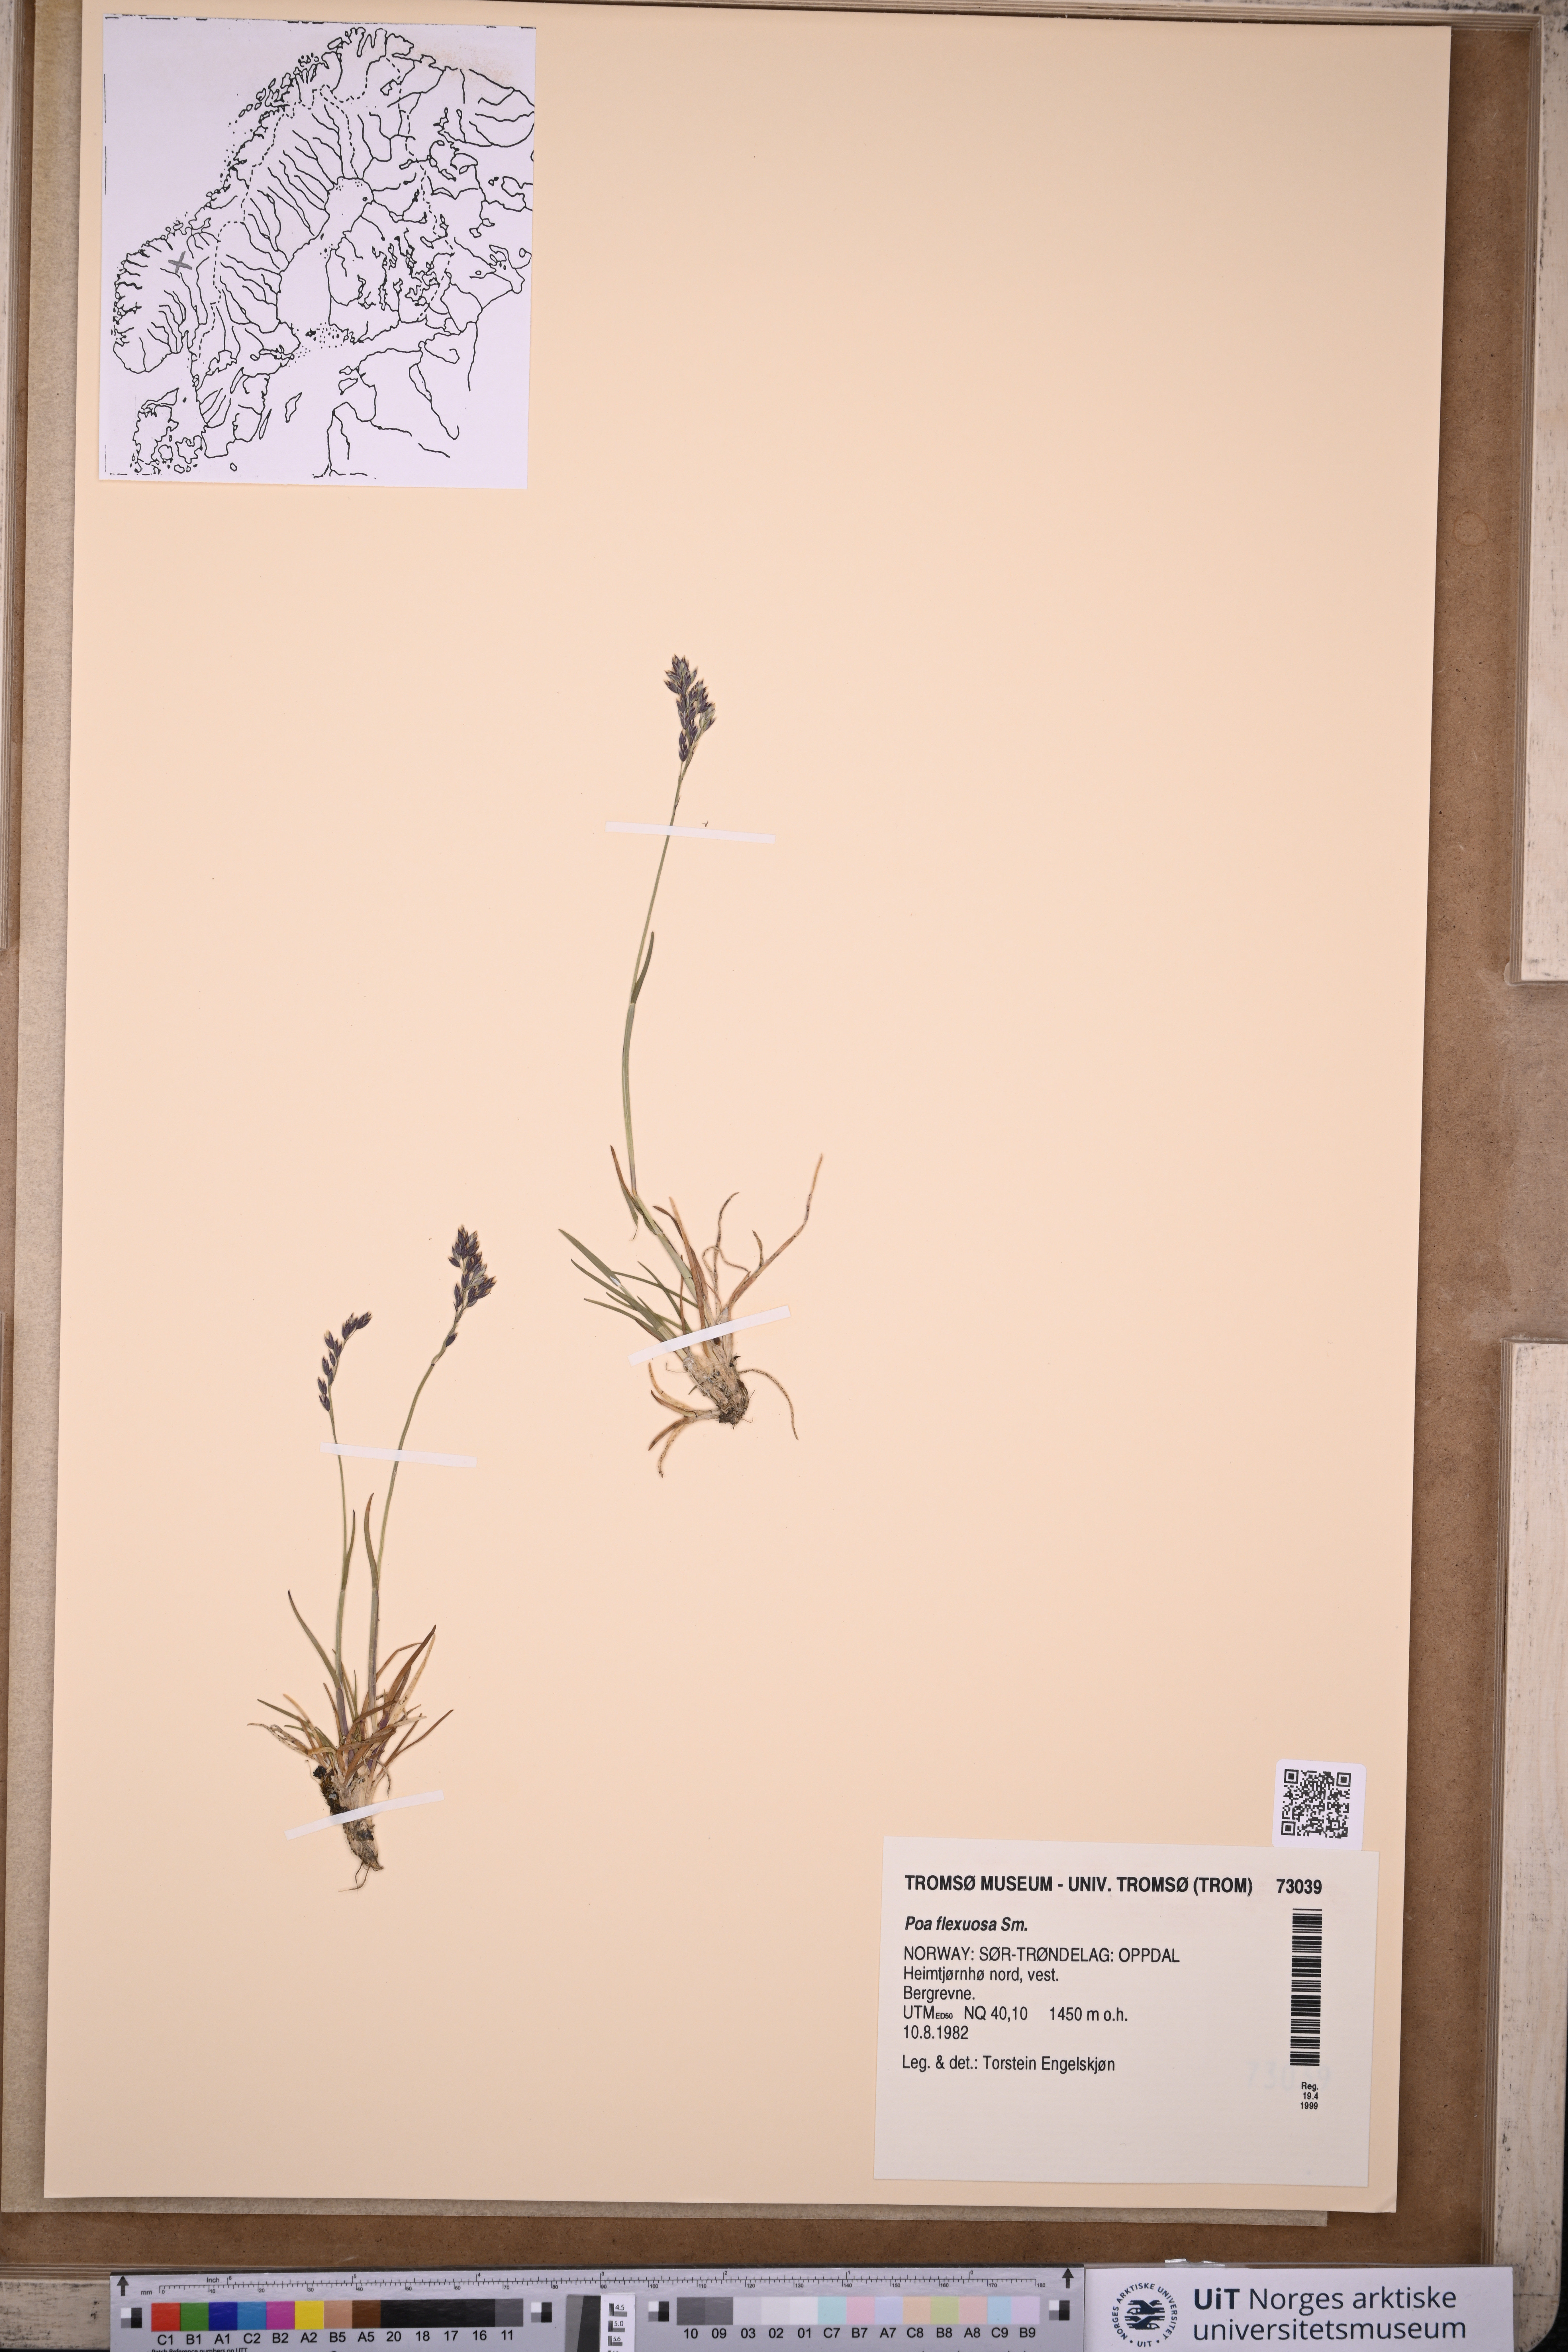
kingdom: Plantae
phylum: Tracheophyta
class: Liliopsida
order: Poales
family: Poaceae
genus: Poa
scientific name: Poa flexuosa
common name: Wavy meadow-grass
